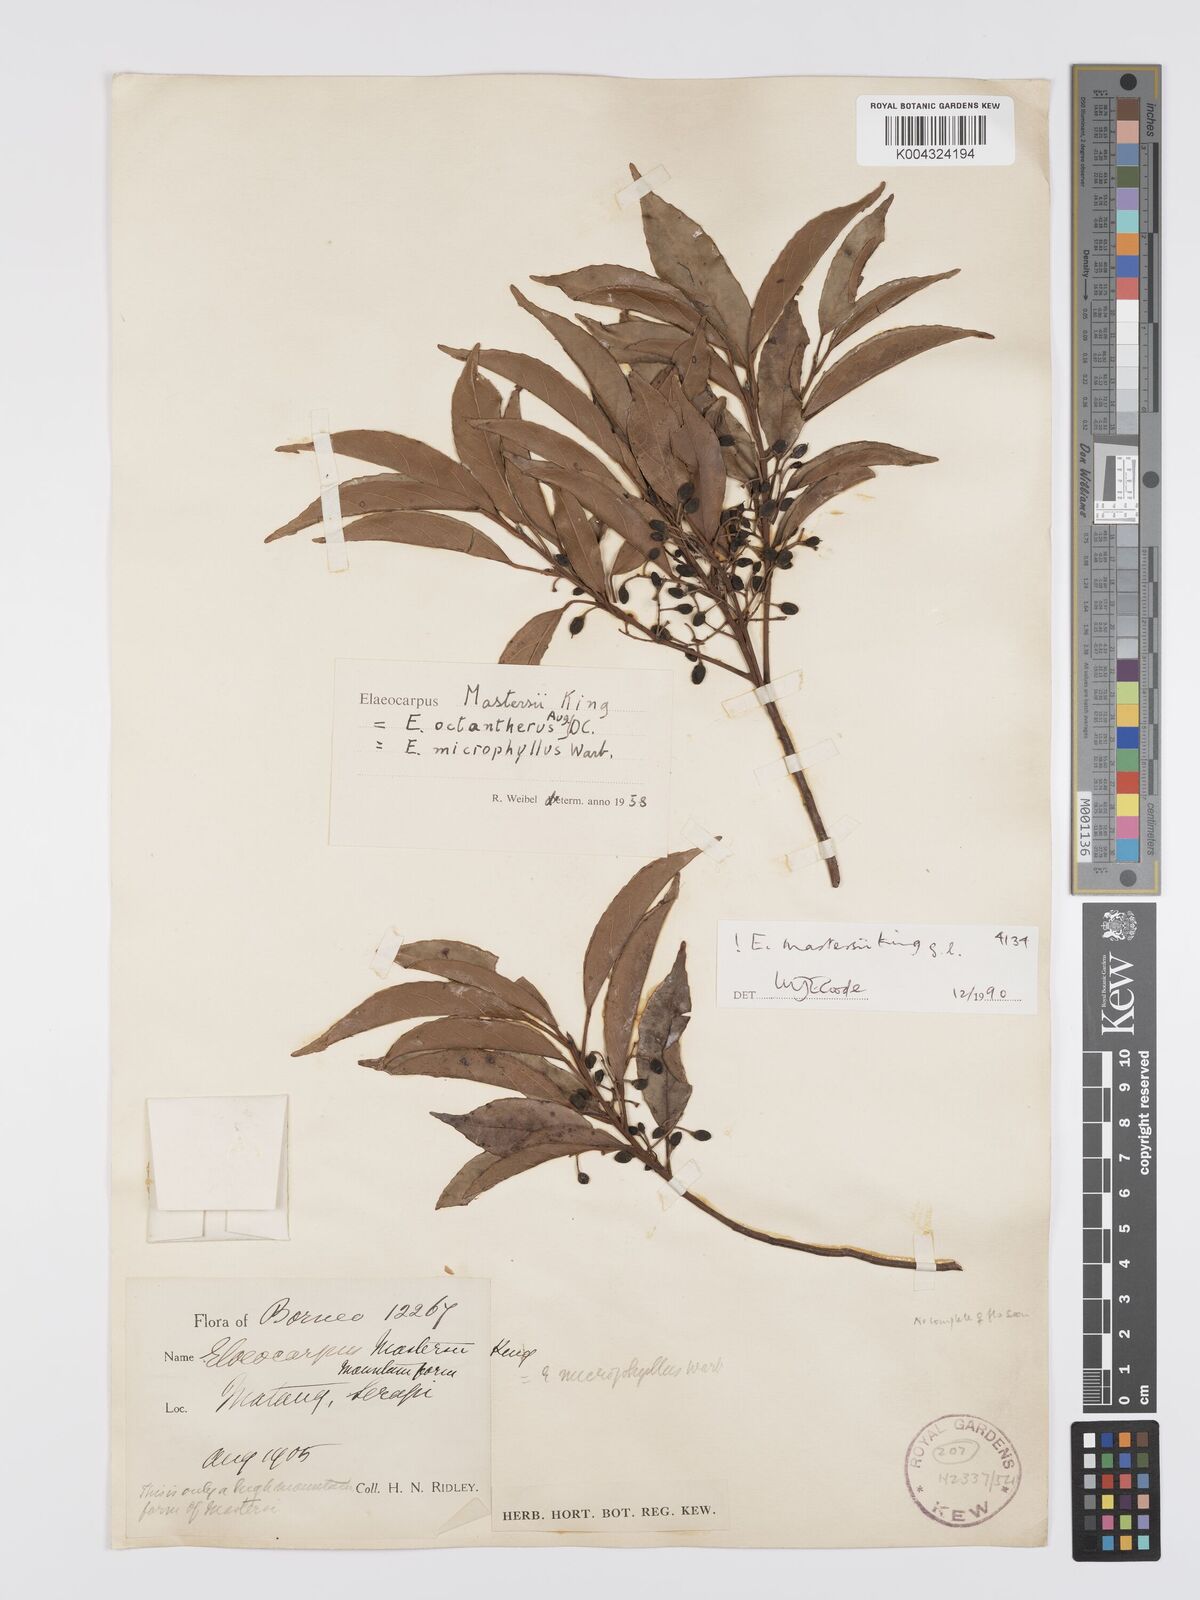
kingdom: Plantae
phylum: Tracheophyta
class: Magnoliopsida
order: Oxalidales
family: Elaeocarpaceae
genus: Elaeocarpus
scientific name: Elaeocarpus mastersii
